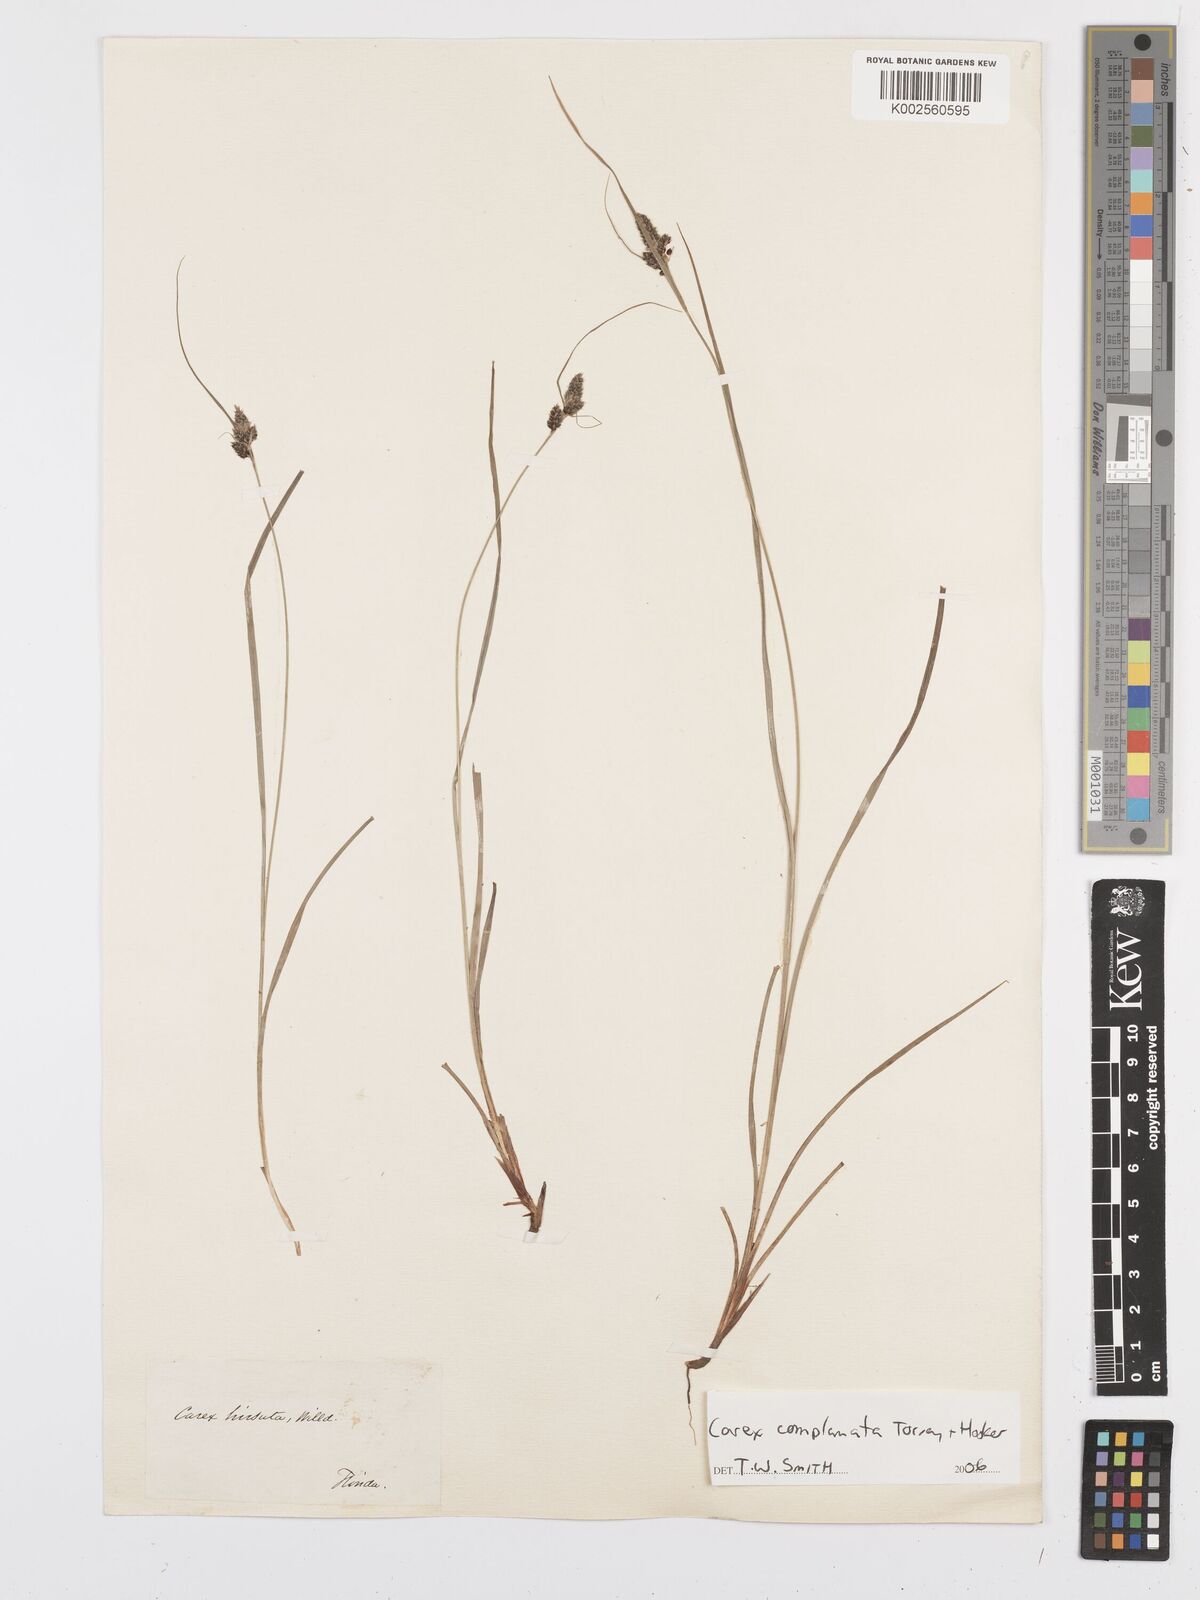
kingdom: Plantae
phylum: Tracheophyta
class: Liliopsida
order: Poales
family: Cyperaceae
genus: Carex
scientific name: Carex complanata
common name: Hirsute sedge
